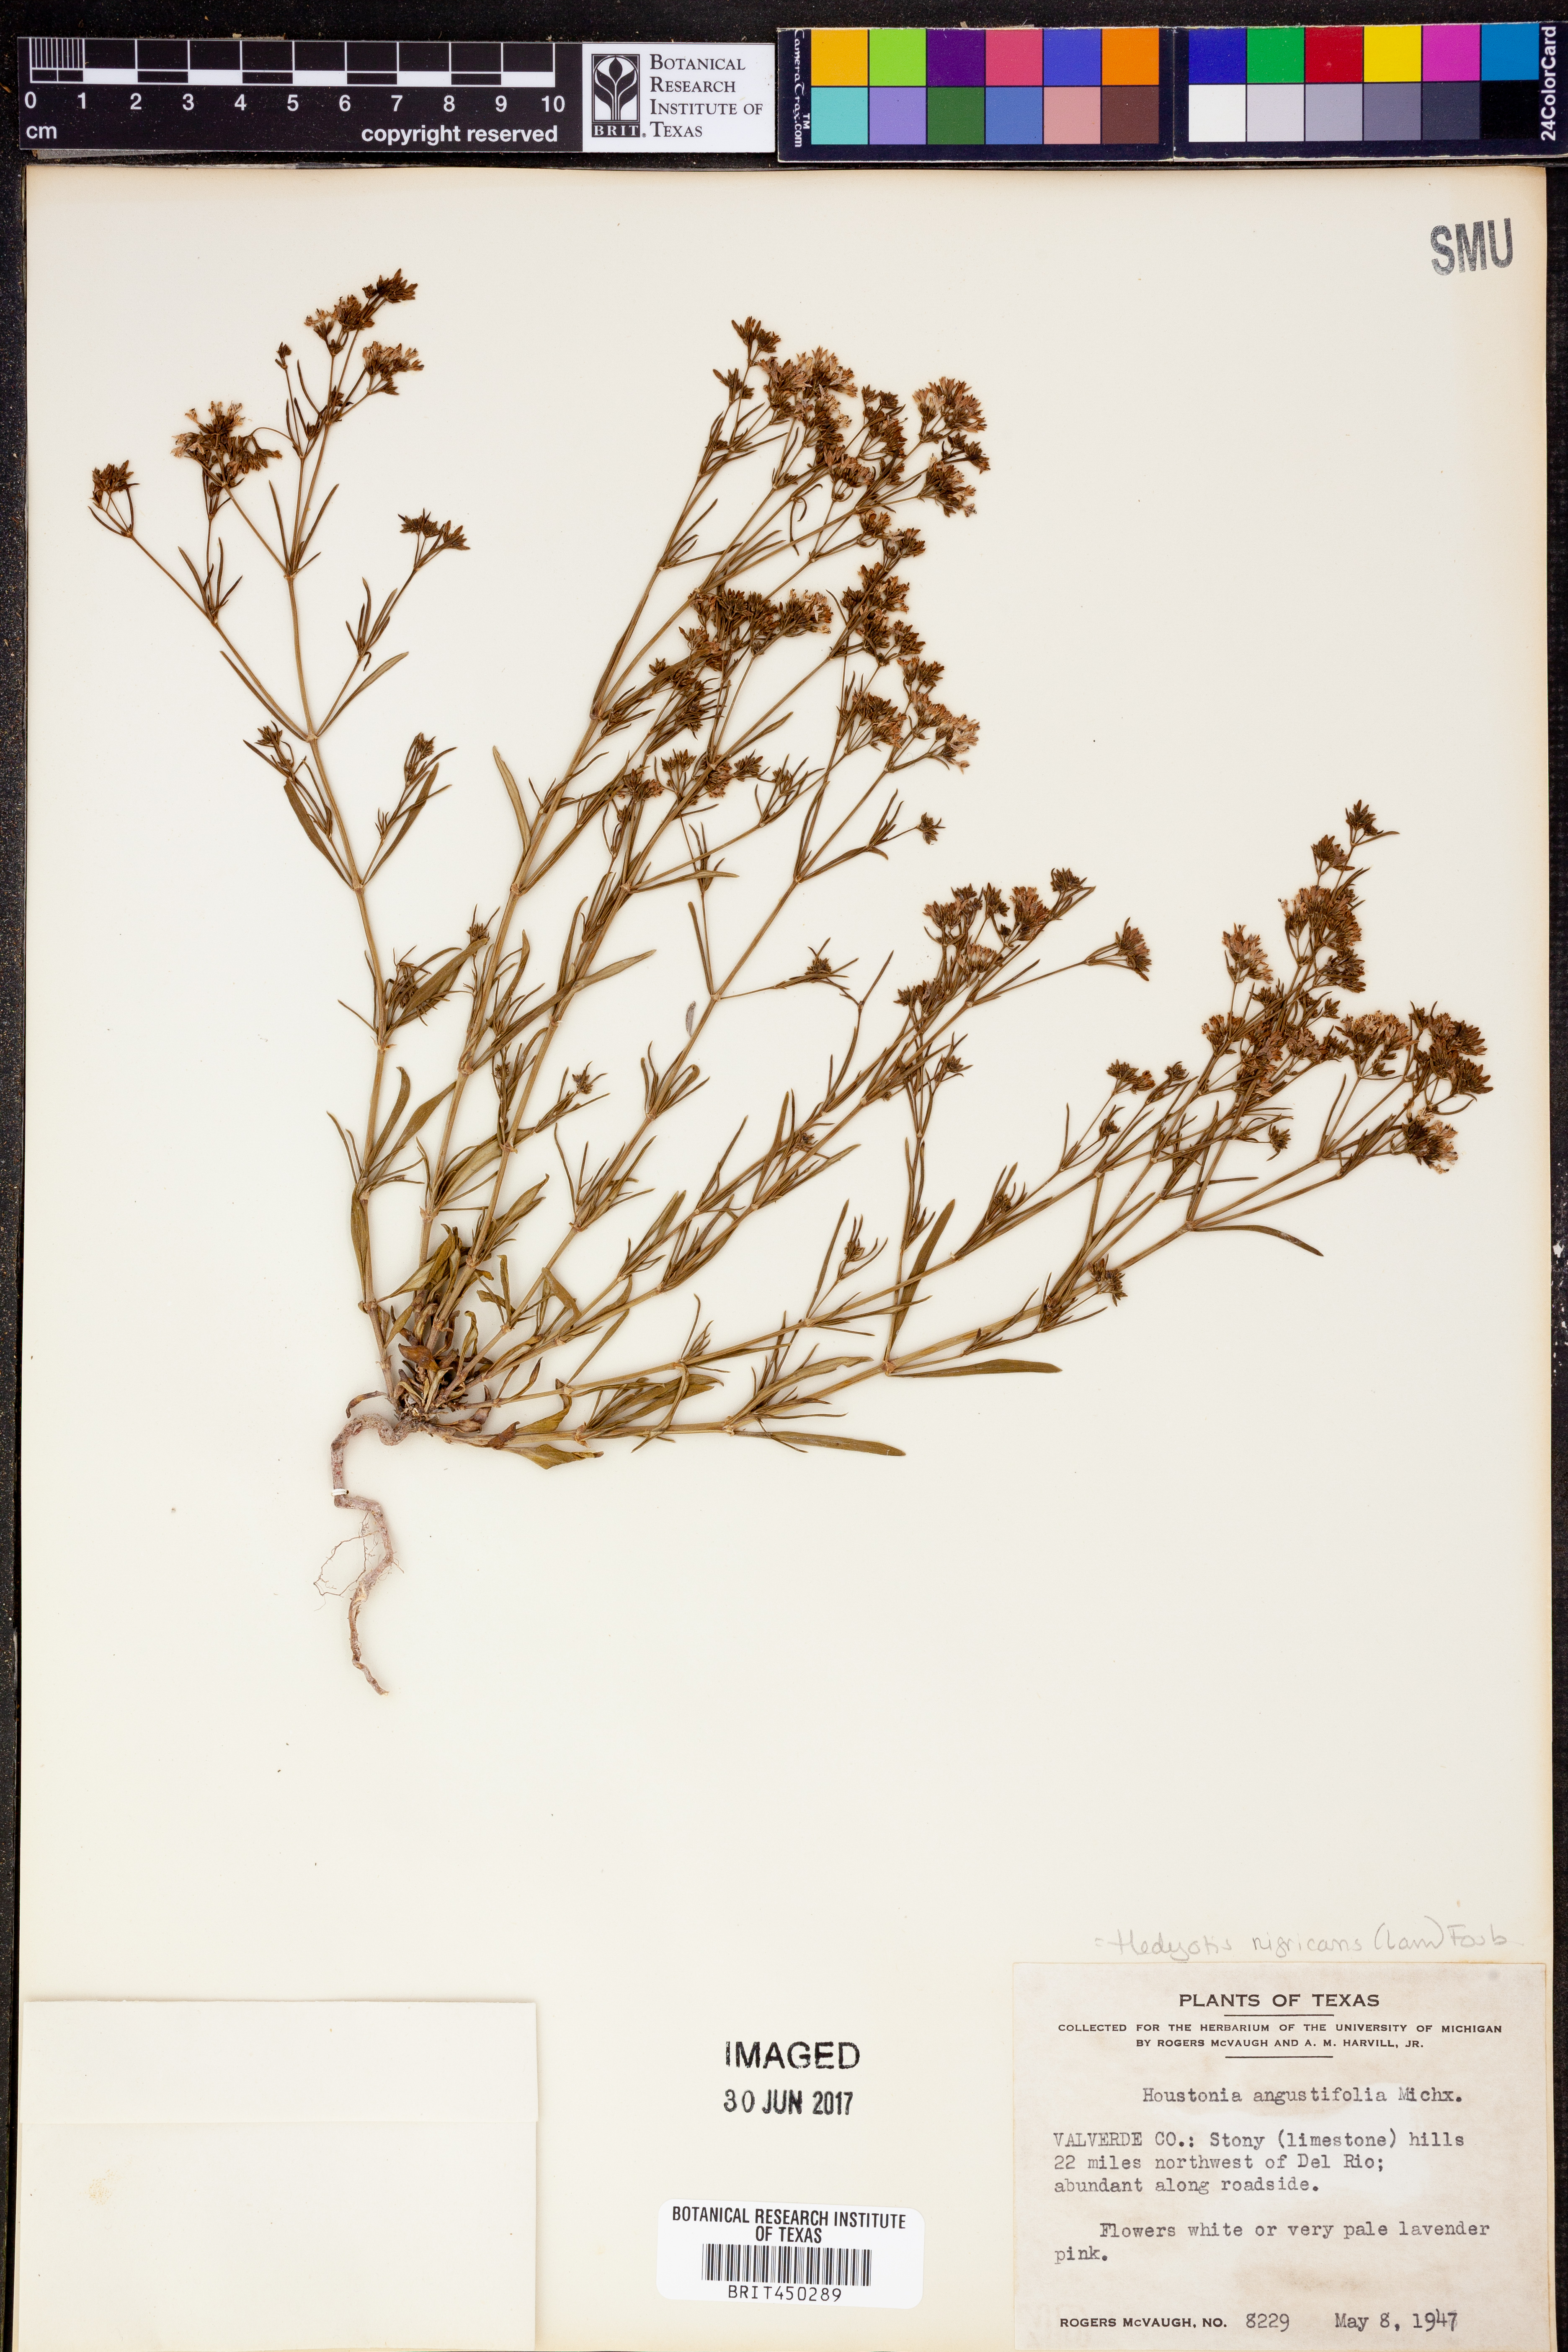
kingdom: Plantae
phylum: Tracheophyta
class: Magnoliopsida
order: Gentianales
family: Rubiaceae
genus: Stenaria
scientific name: Stenaria nigricans
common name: Diamondflowers
